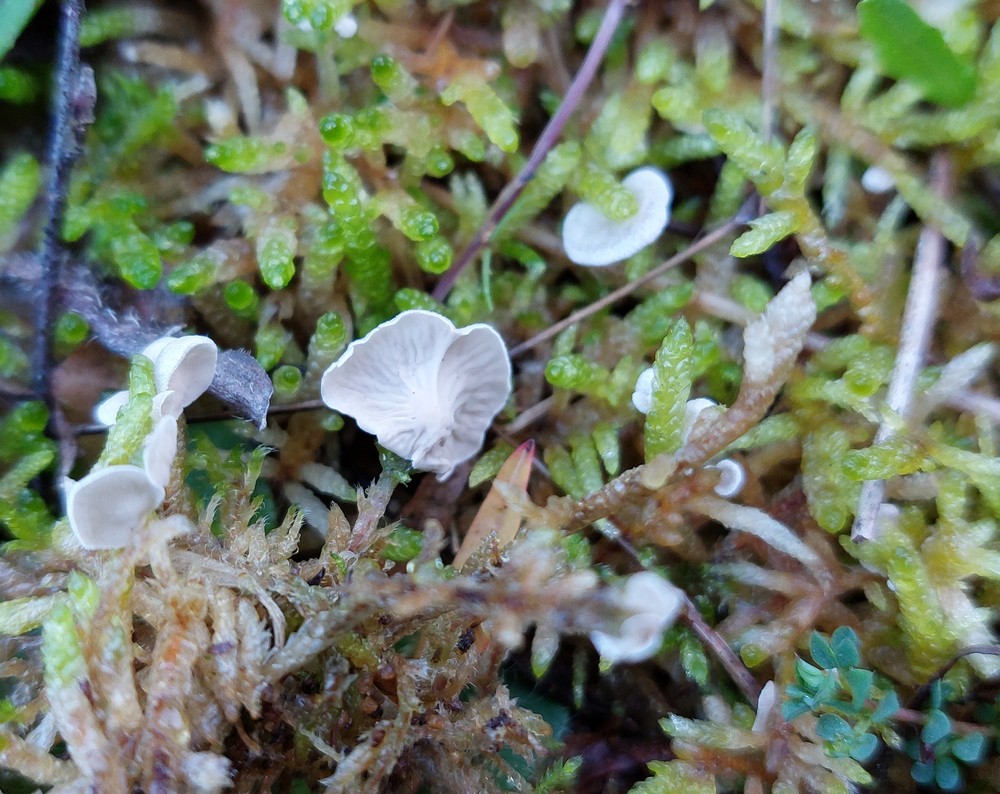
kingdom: Fungi
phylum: Basidiomycota
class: Agaricomycetes
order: Agaricales
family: Hygrophoraceae
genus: Arrhenia
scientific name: Arrhenia retiruga
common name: lille fontænehat
